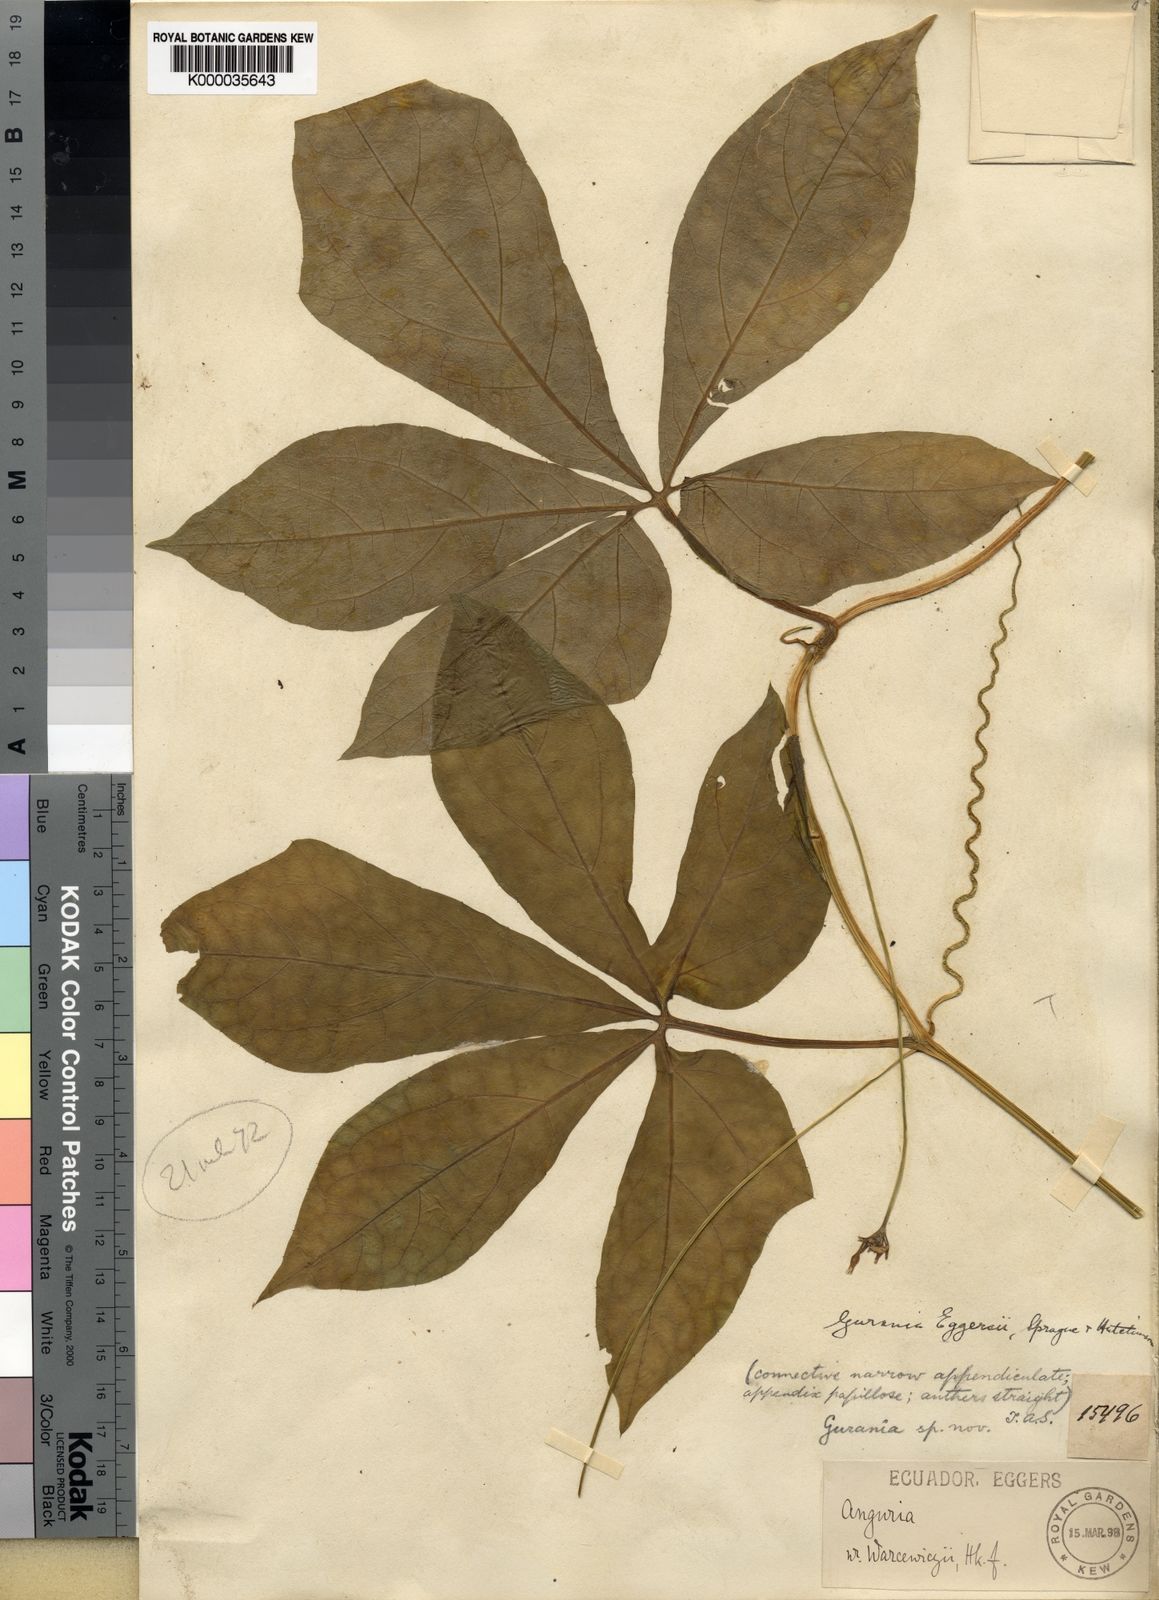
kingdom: Plantae
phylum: Tracheophyta
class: Magnoliopsida
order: Cucurbitales
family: Cucurbitaceae
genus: Gurania
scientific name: Gurania pedata
